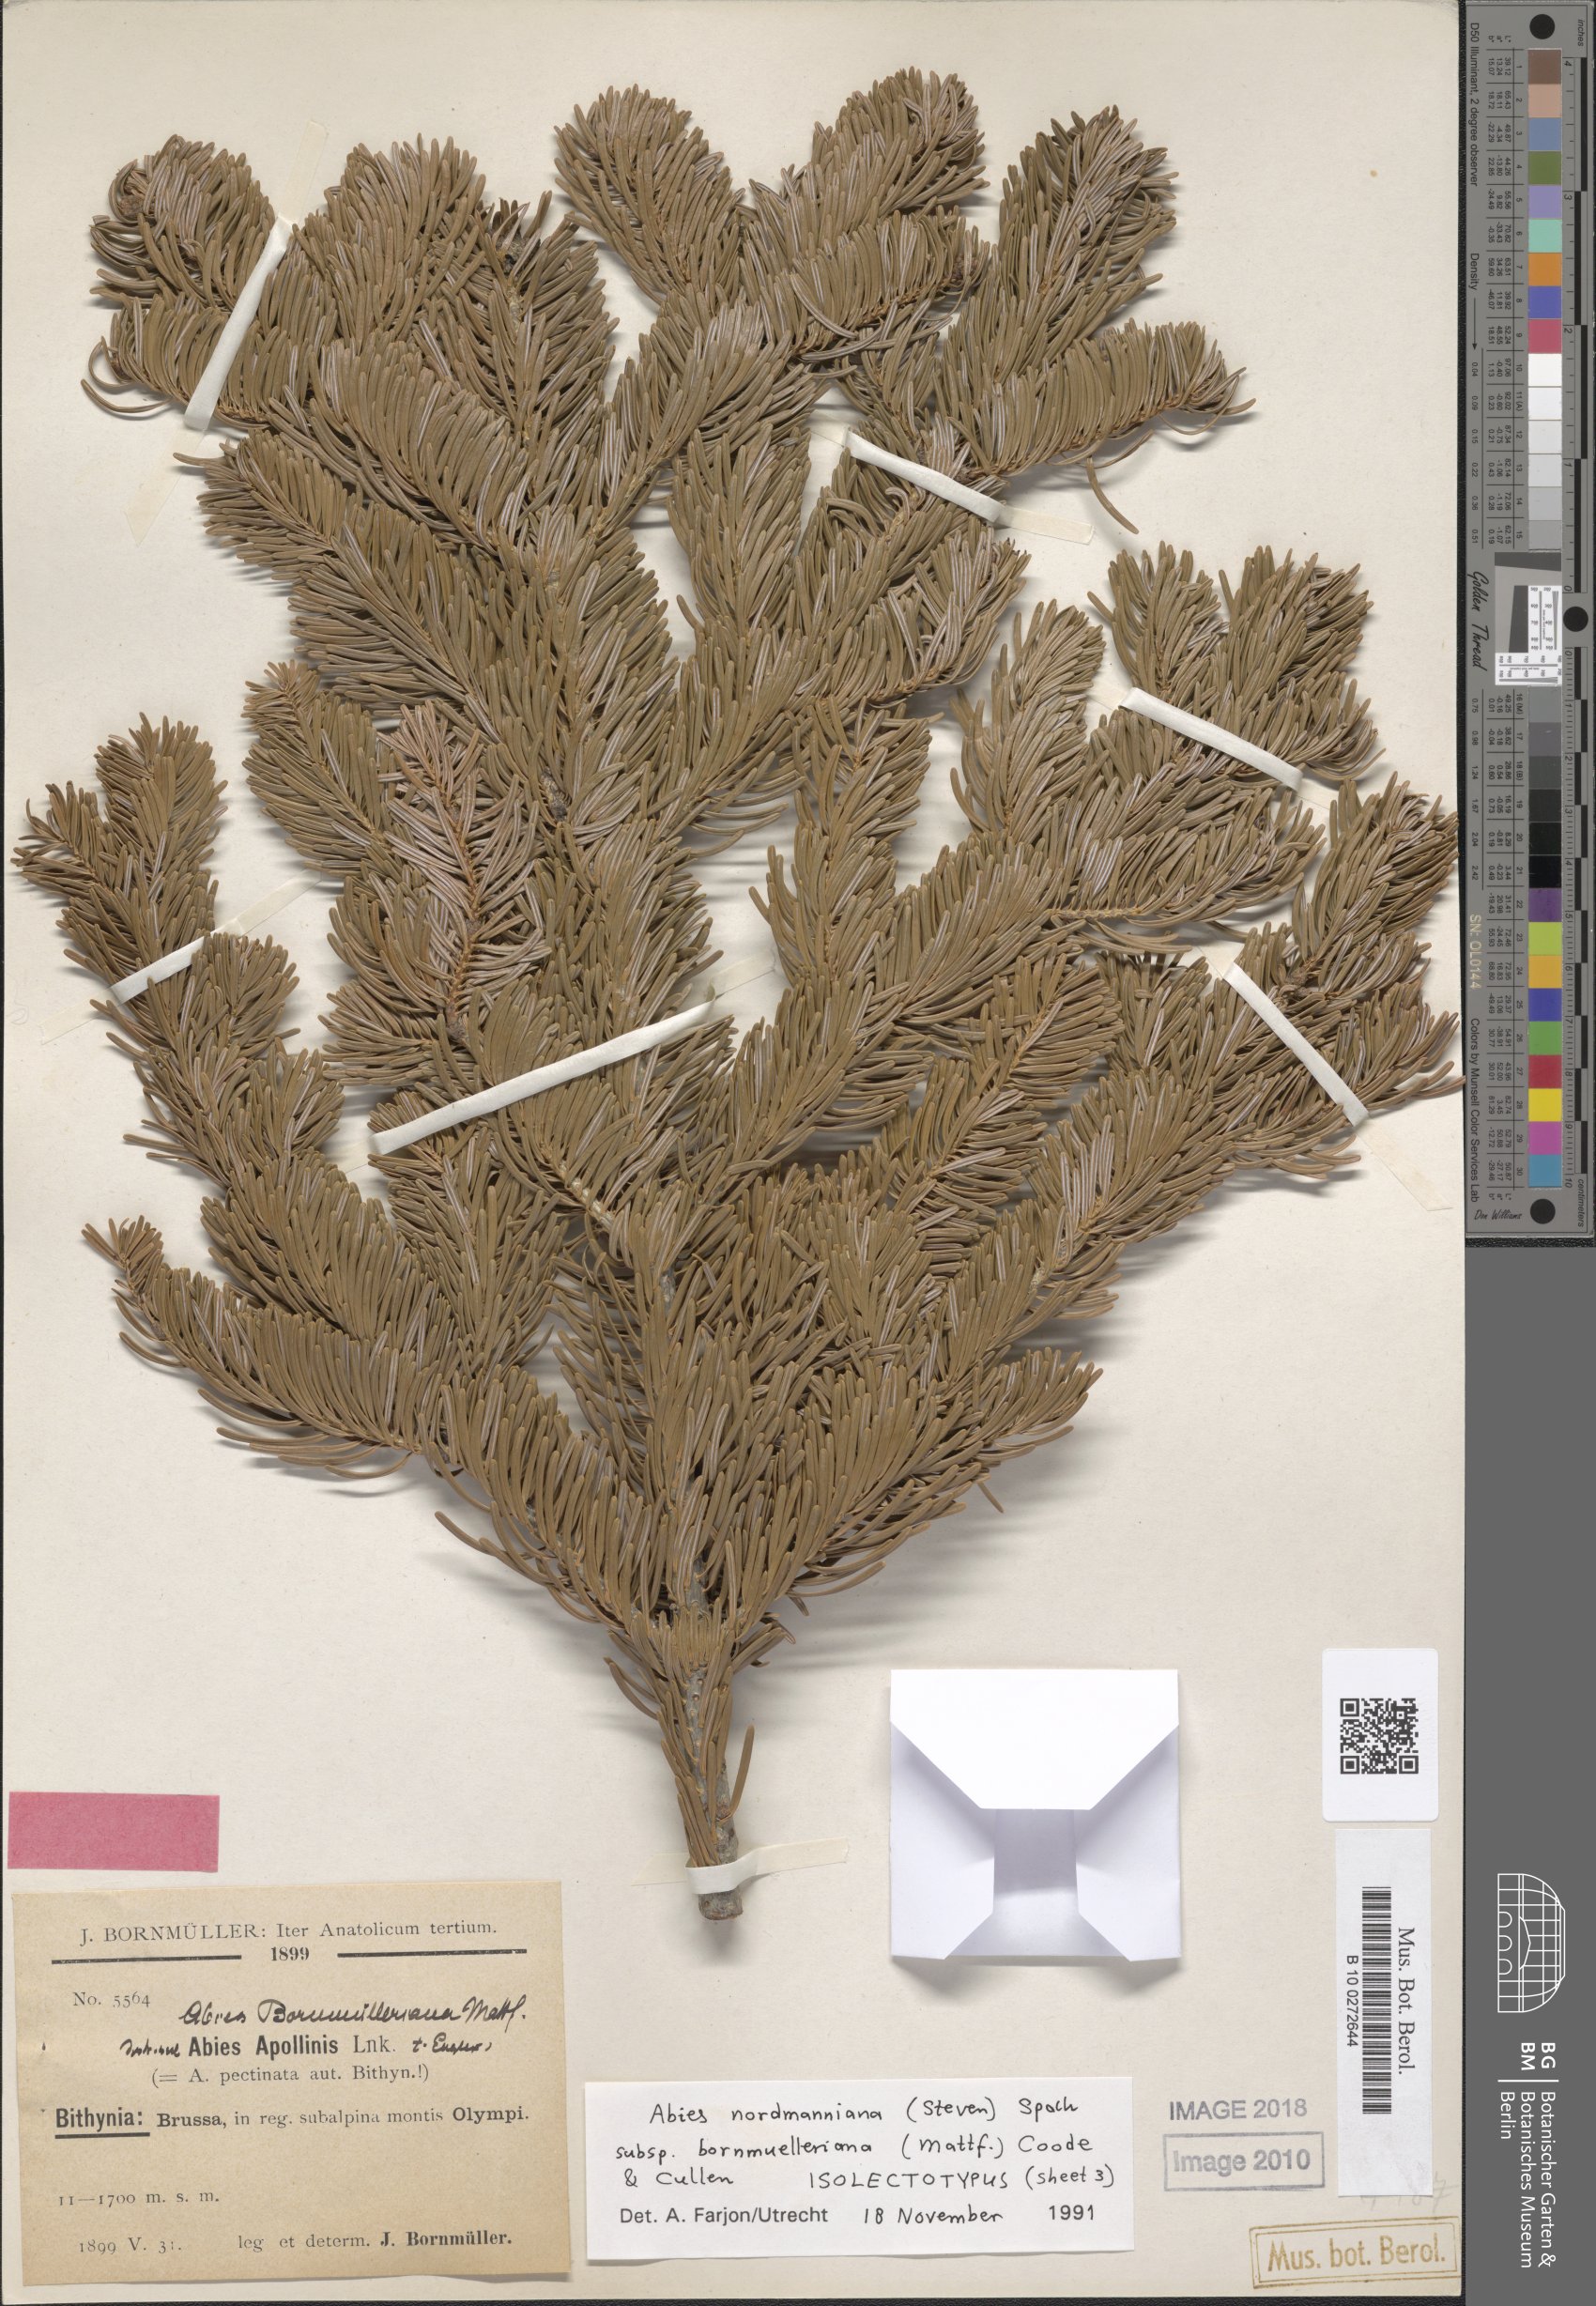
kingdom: Plantae
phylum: Tracheophyta
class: Pinopsida
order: Pinales
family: Pinaceae
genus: Abies
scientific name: Abies nordmanniana
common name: Caucasian fir
